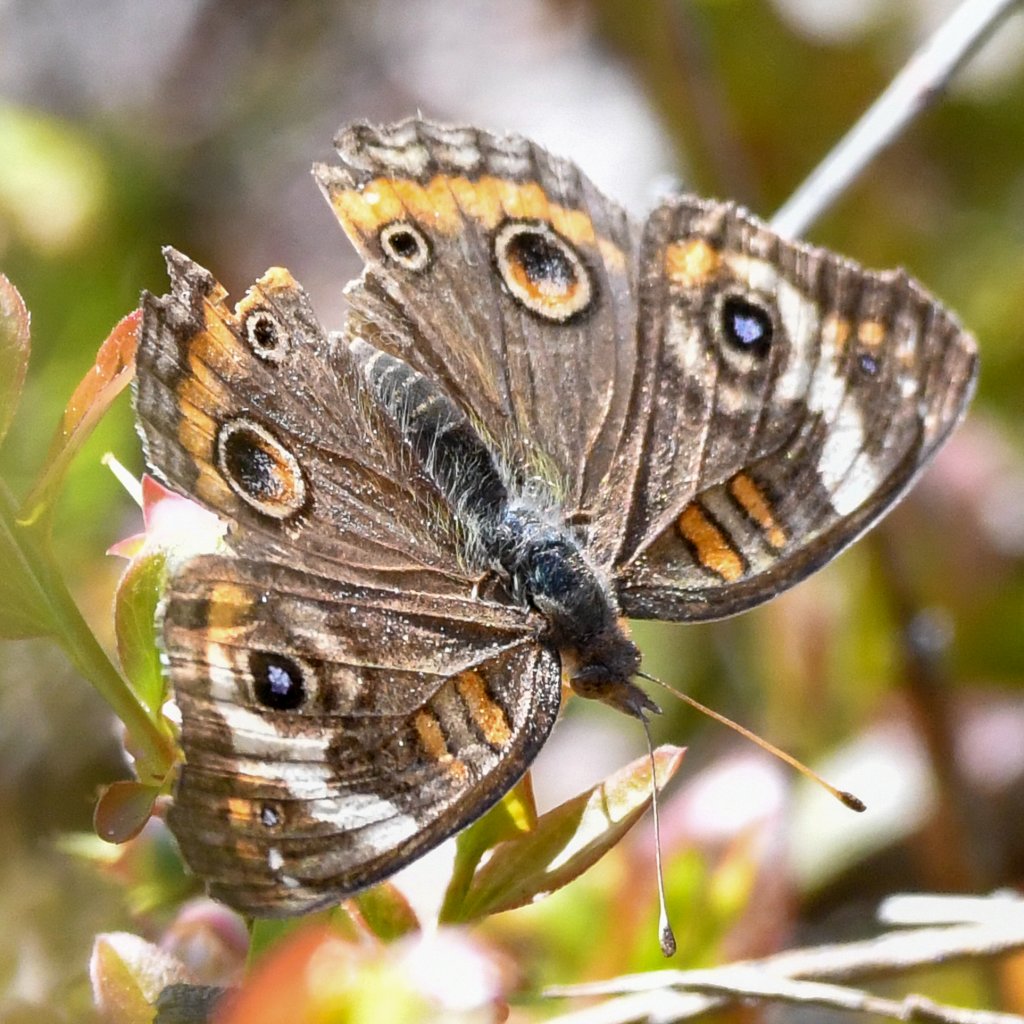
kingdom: Animalia
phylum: Arthropoda
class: Insecta
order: Lepidoptera
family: Nymphalidae
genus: Junonia
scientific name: Junonia coenia
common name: Common Buckeye
